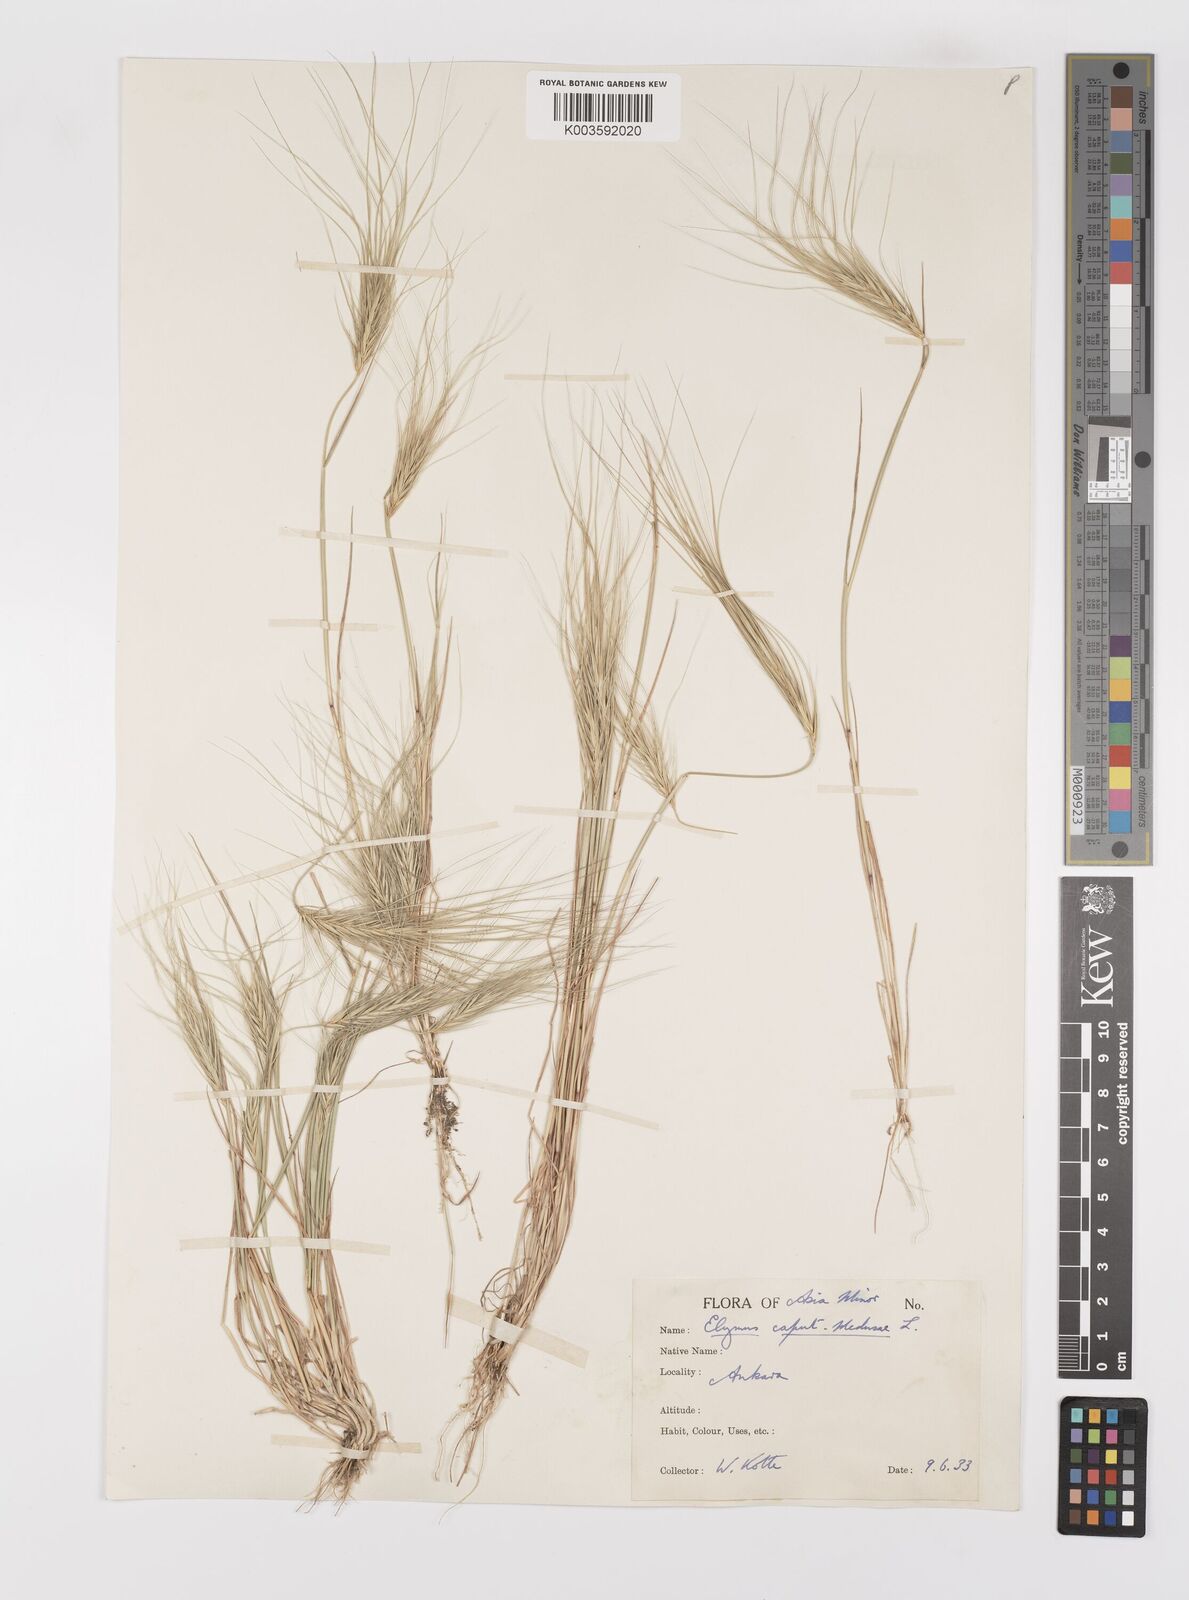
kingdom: Plantae
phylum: Tracheophyta
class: Liliopsida
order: Poales
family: Poaceae
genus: Taeniatherum
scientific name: Taeniatherum caput-medusae
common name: Medusahead
